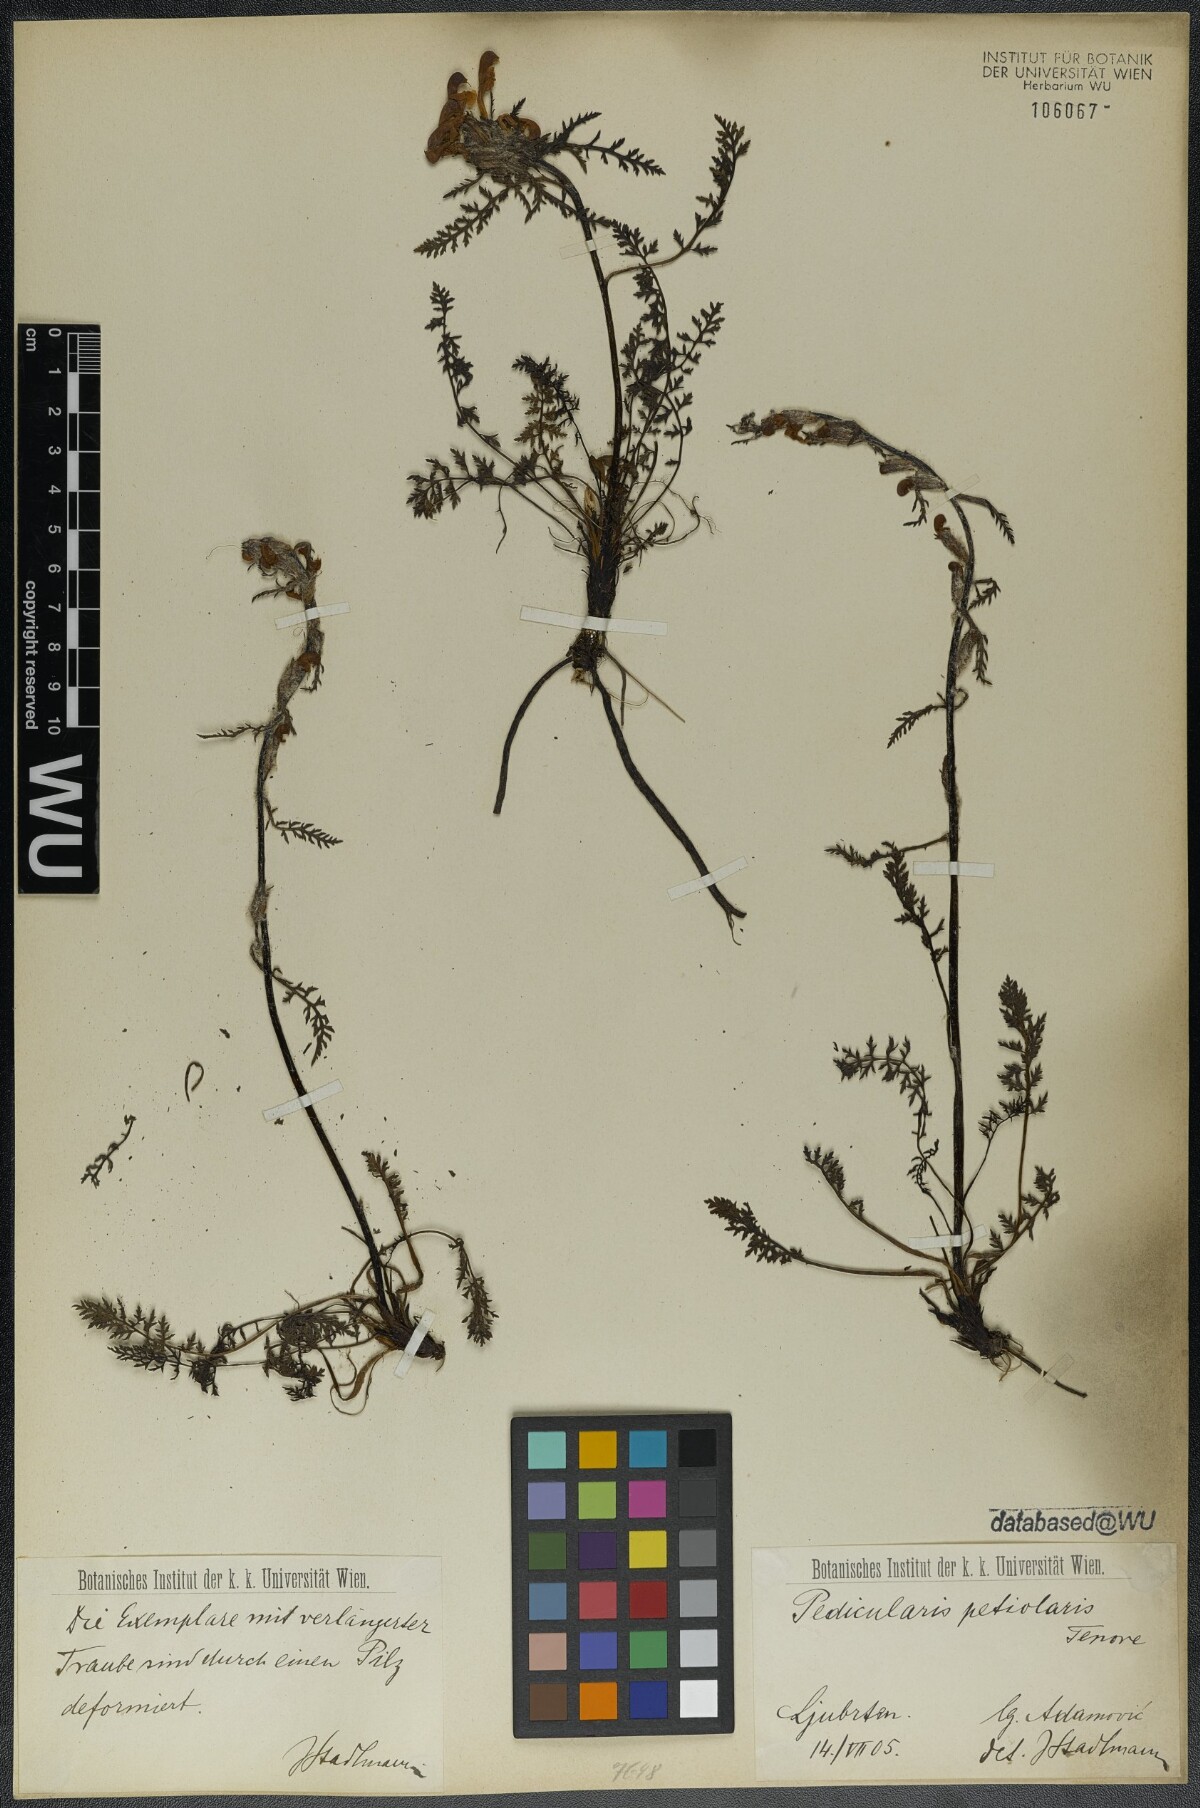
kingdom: Plantae
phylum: Tracheophyta
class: Magnoliopsida
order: Lamiales
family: Orobanchaceae
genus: Pedicularis
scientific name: Pedicularis petiolaris
